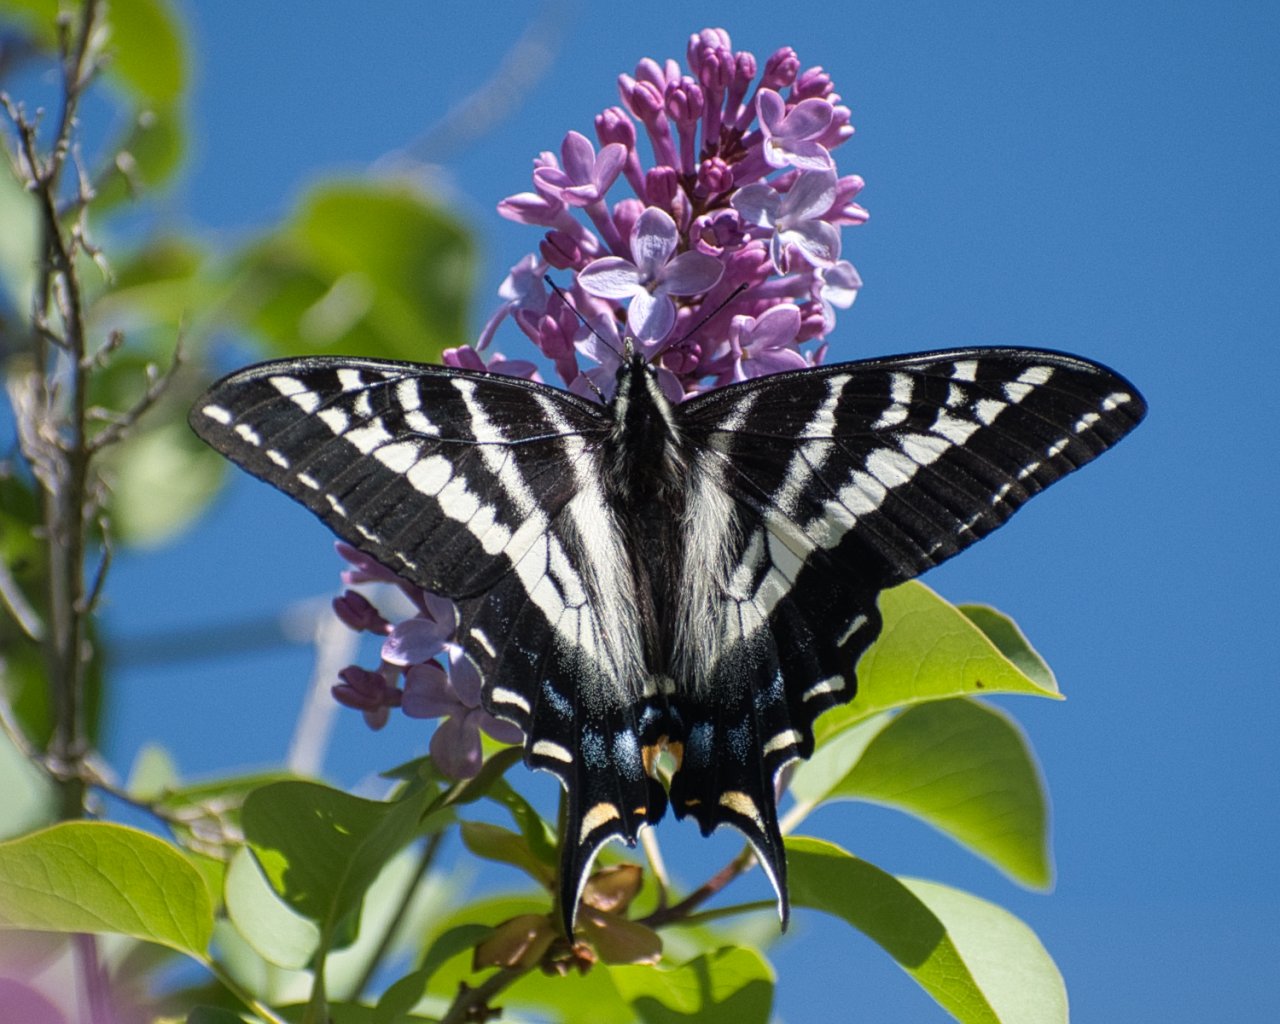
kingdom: Animalia
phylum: Arthropoda
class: Insecta
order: Lepidoptera
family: Papilionidae
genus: Pterourus
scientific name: Pterourus eurymedon
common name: Pale Swallowtail
